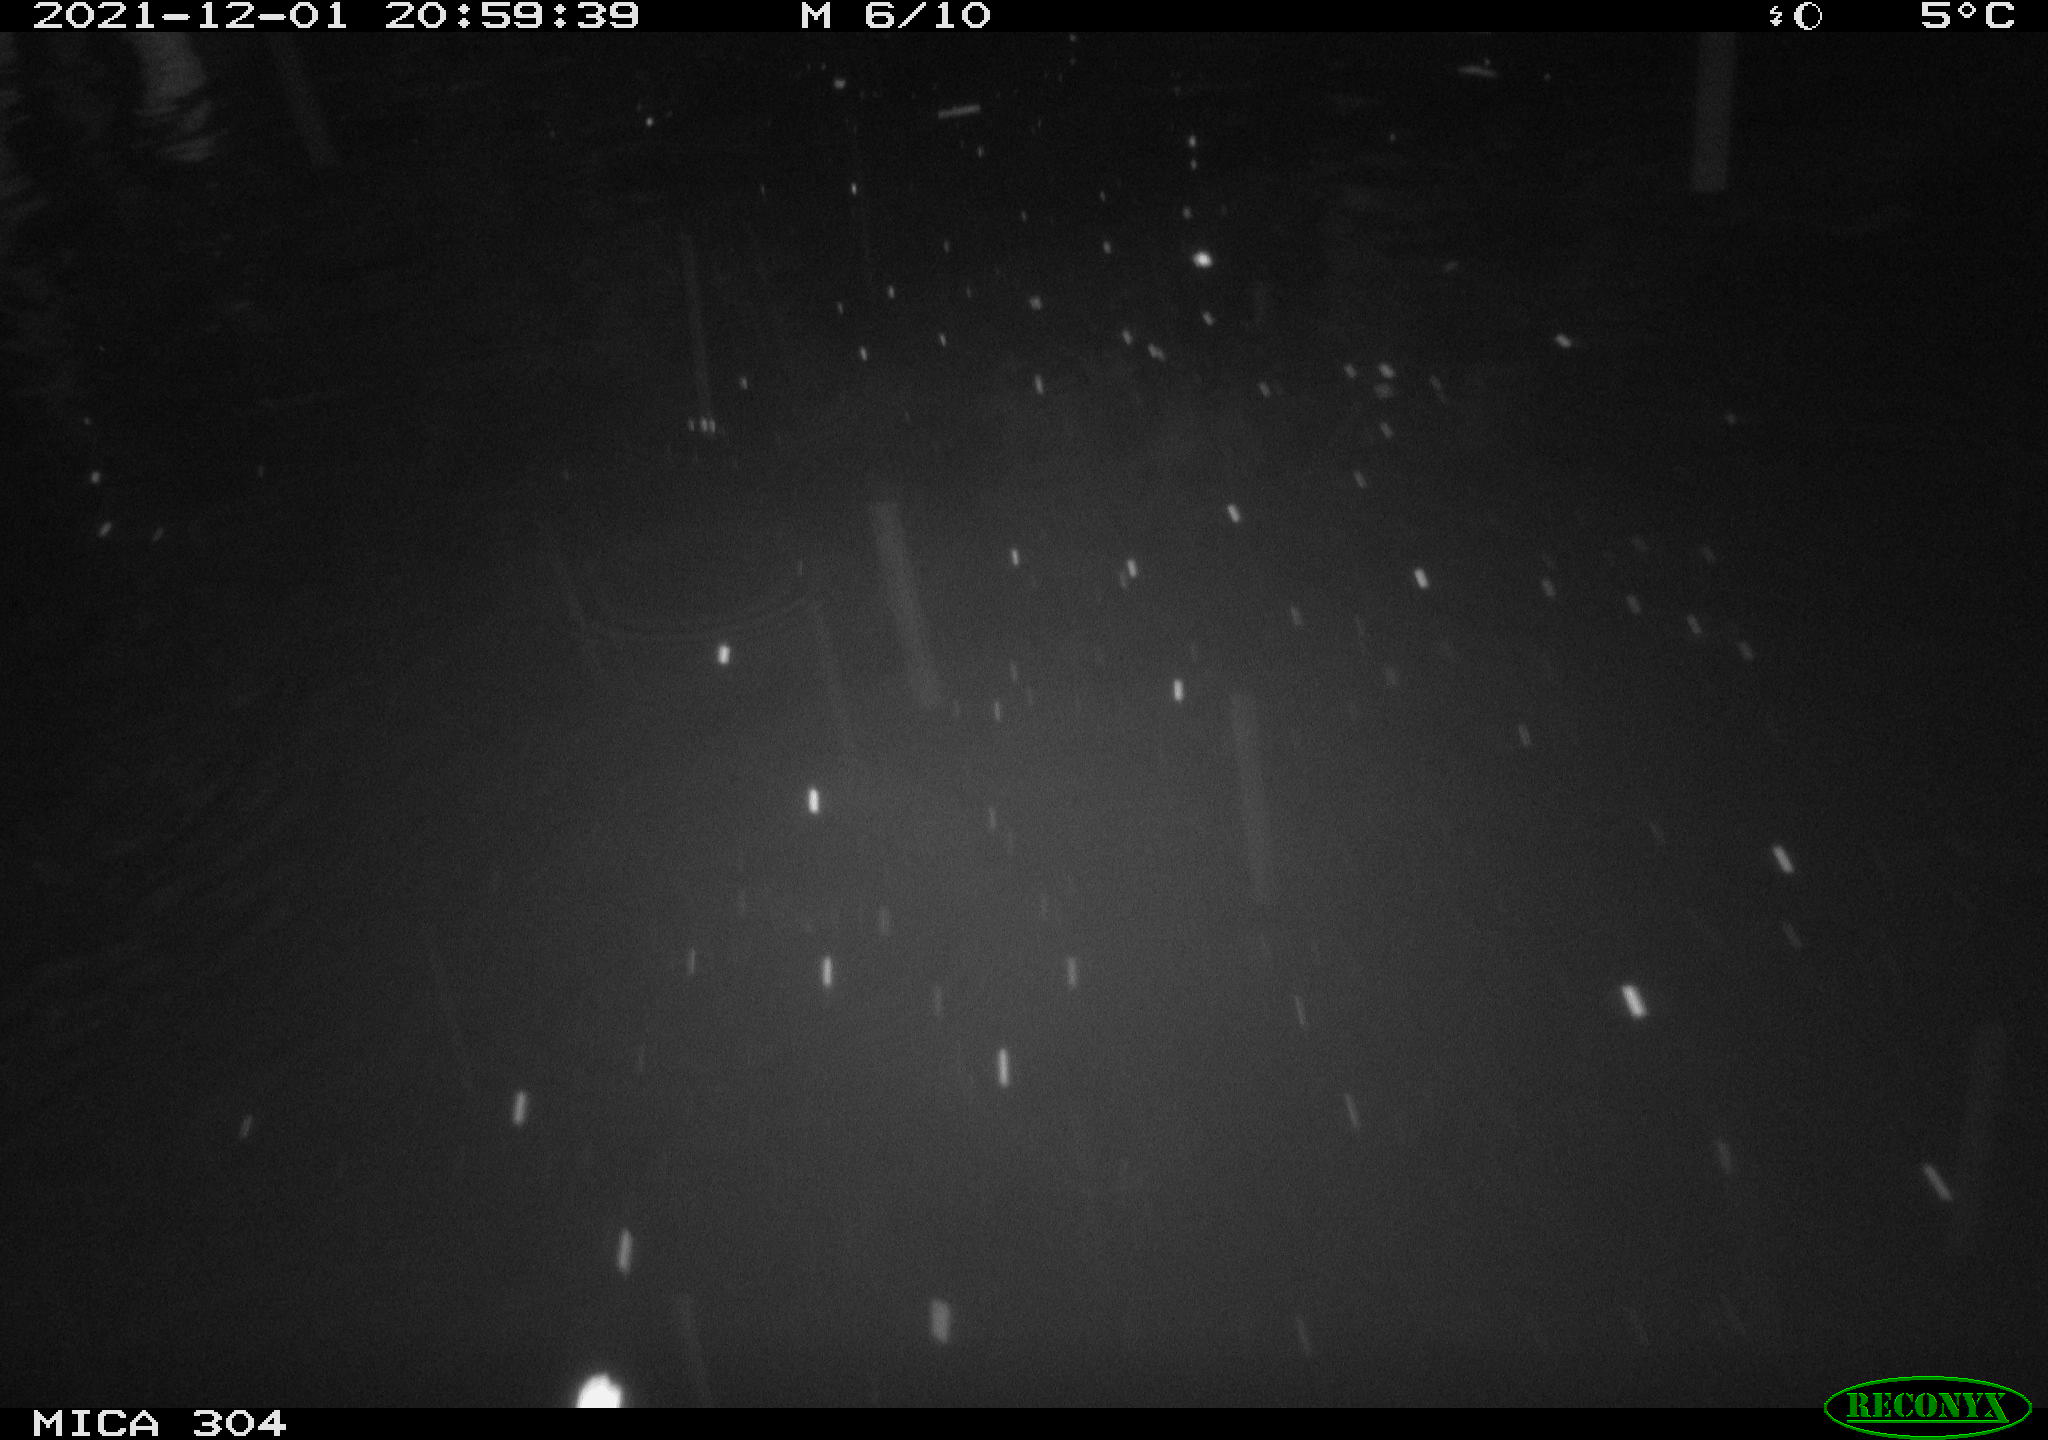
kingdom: Animalia
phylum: Chordata
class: Mammalia
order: Rodentia
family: Muridae
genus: Rattus
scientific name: Rattus norvegicus
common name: Brown rat
